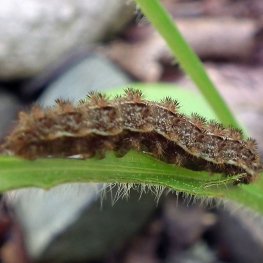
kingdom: Animalia
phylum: Arthropoda
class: Insecta
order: Lepidoptera
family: Nymphalidae
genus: Phyciodes
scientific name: Phyciodes tharos
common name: Northern Crescent
